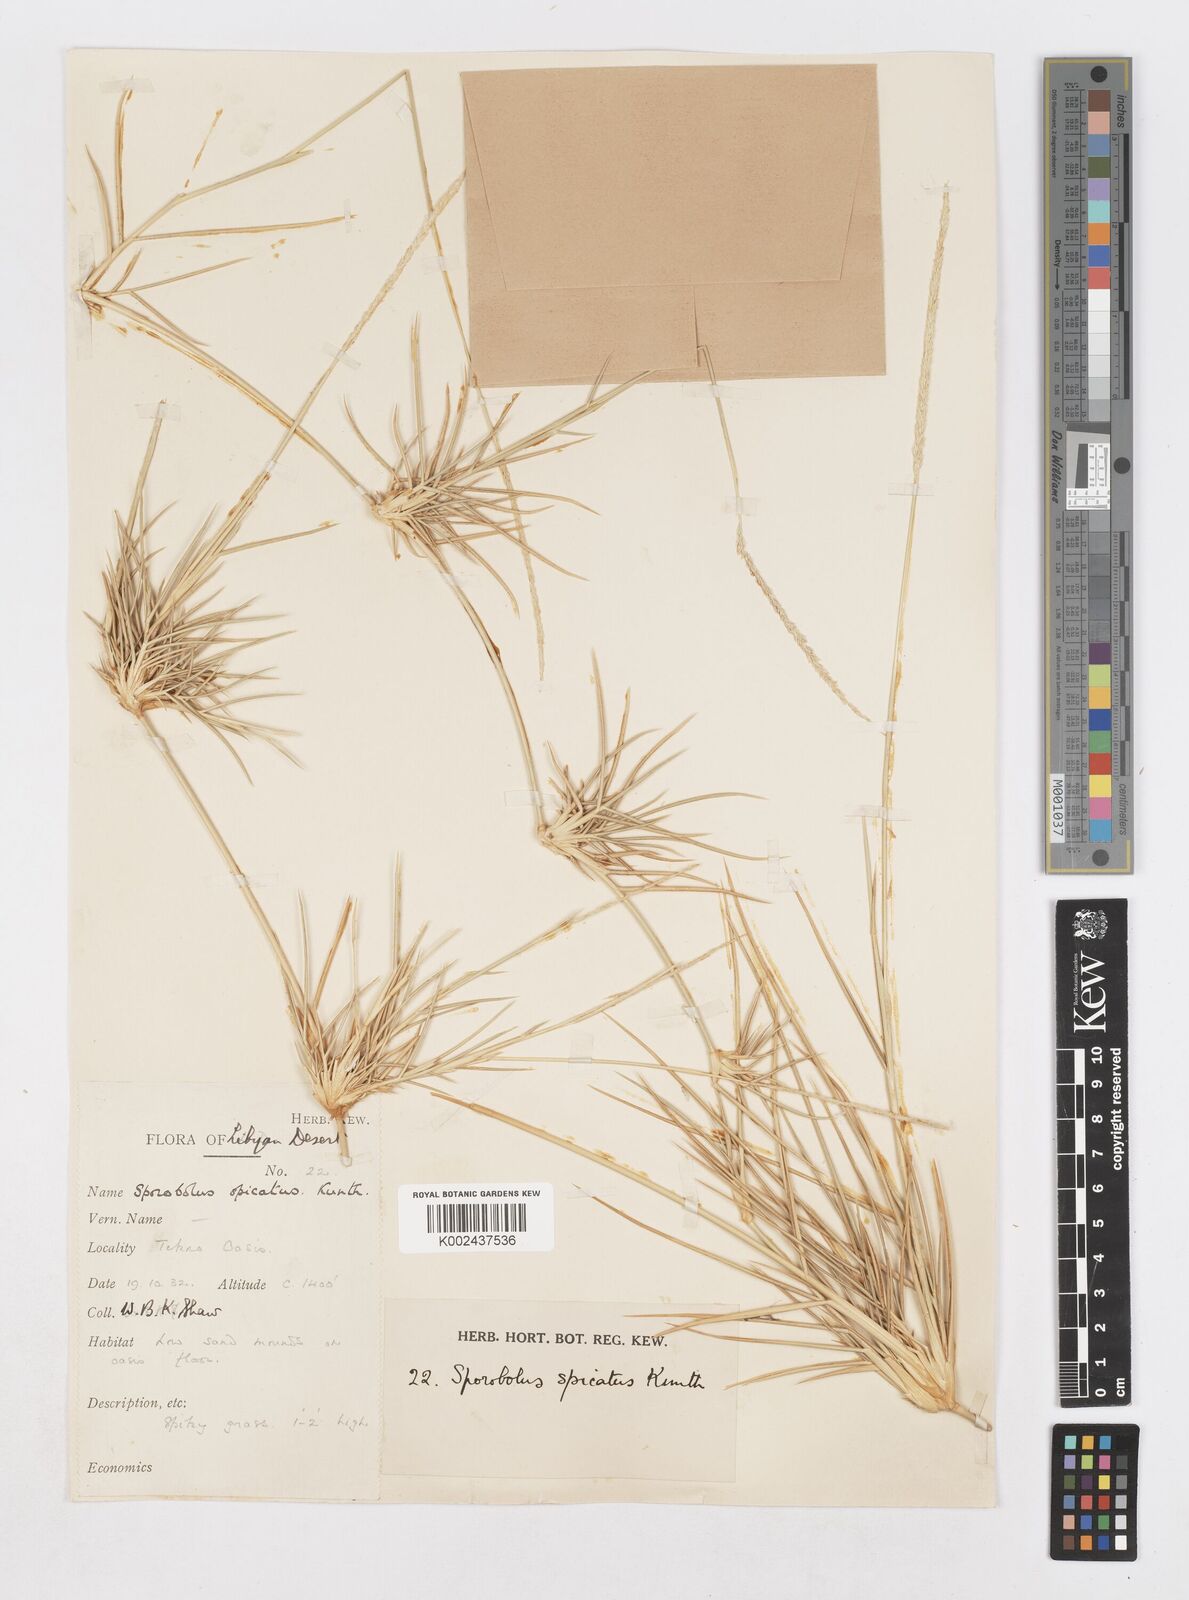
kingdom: Plantae
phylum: Tracheophyta
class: Liliopsida
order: Poales
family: Poaceae
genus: Sporobolus
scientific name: Sporobolus spicatus
